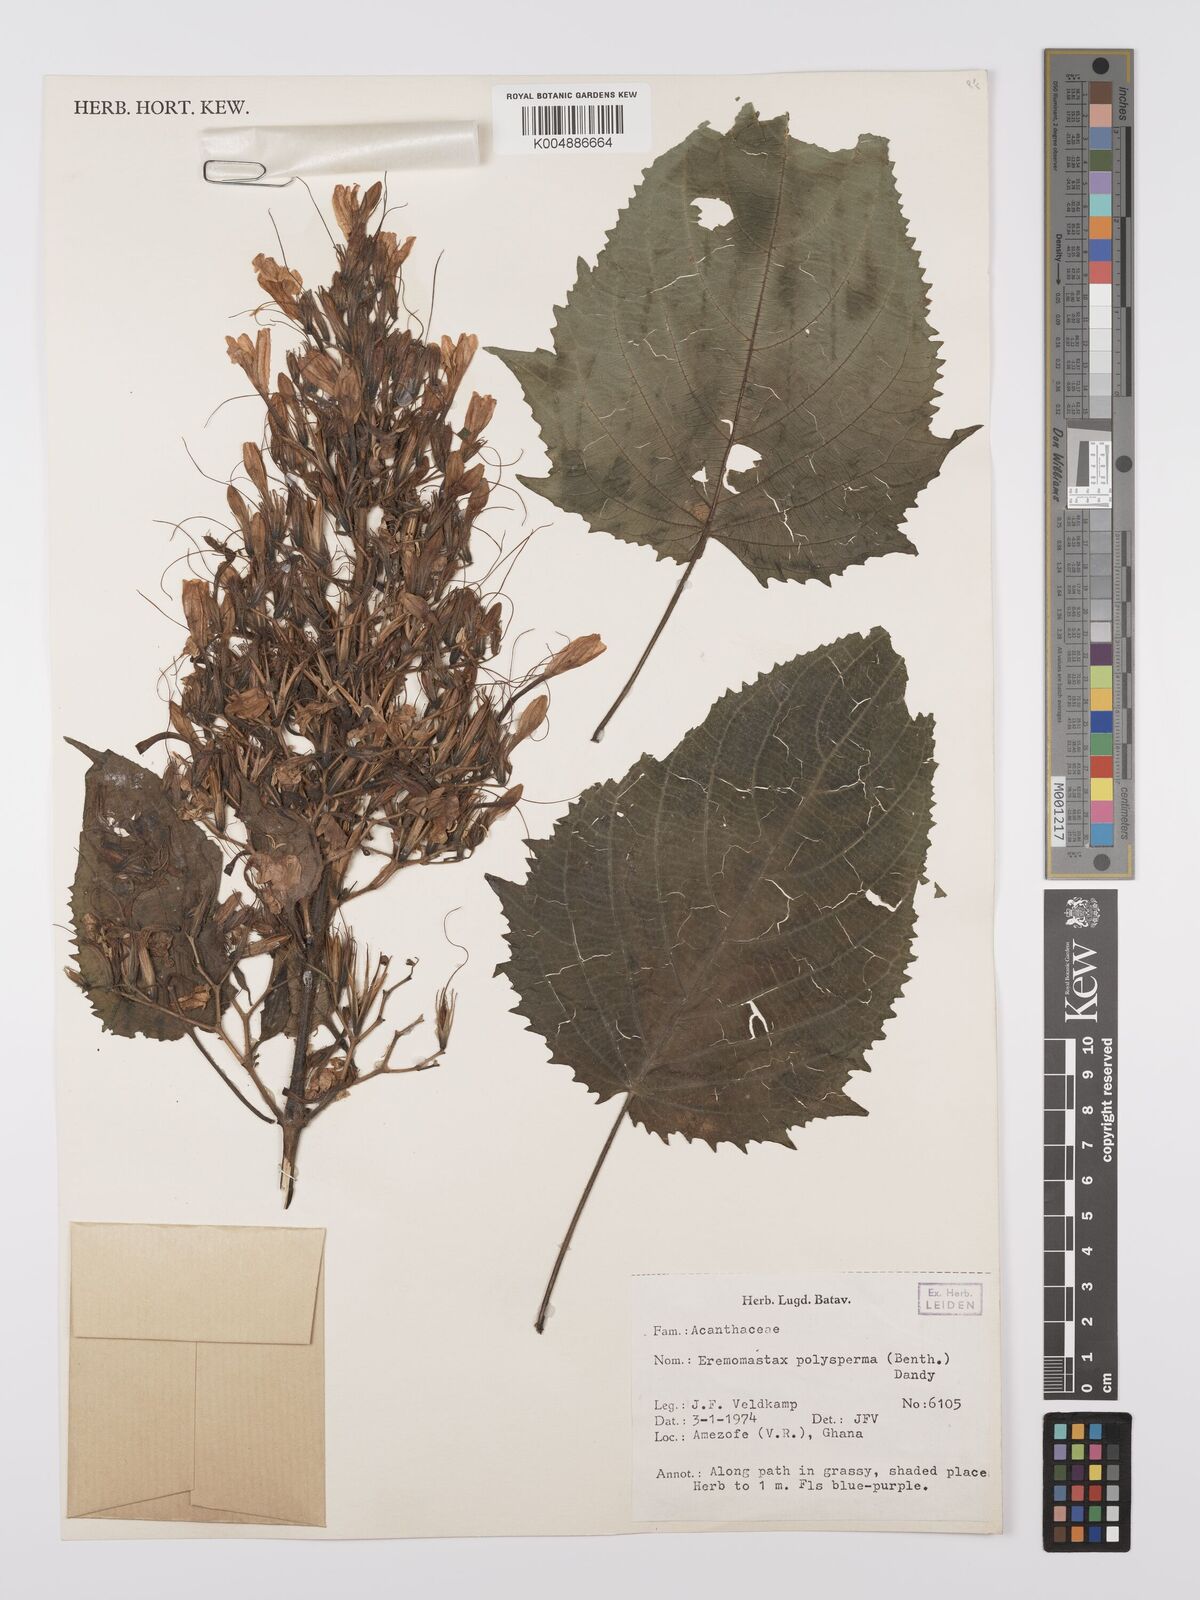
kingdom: Plantae
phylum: Tracheophyta
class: Magnoliopsida
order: Lamiales
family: Acanthaceae
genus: Eremomastax
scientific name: Eremomastax speciosa
